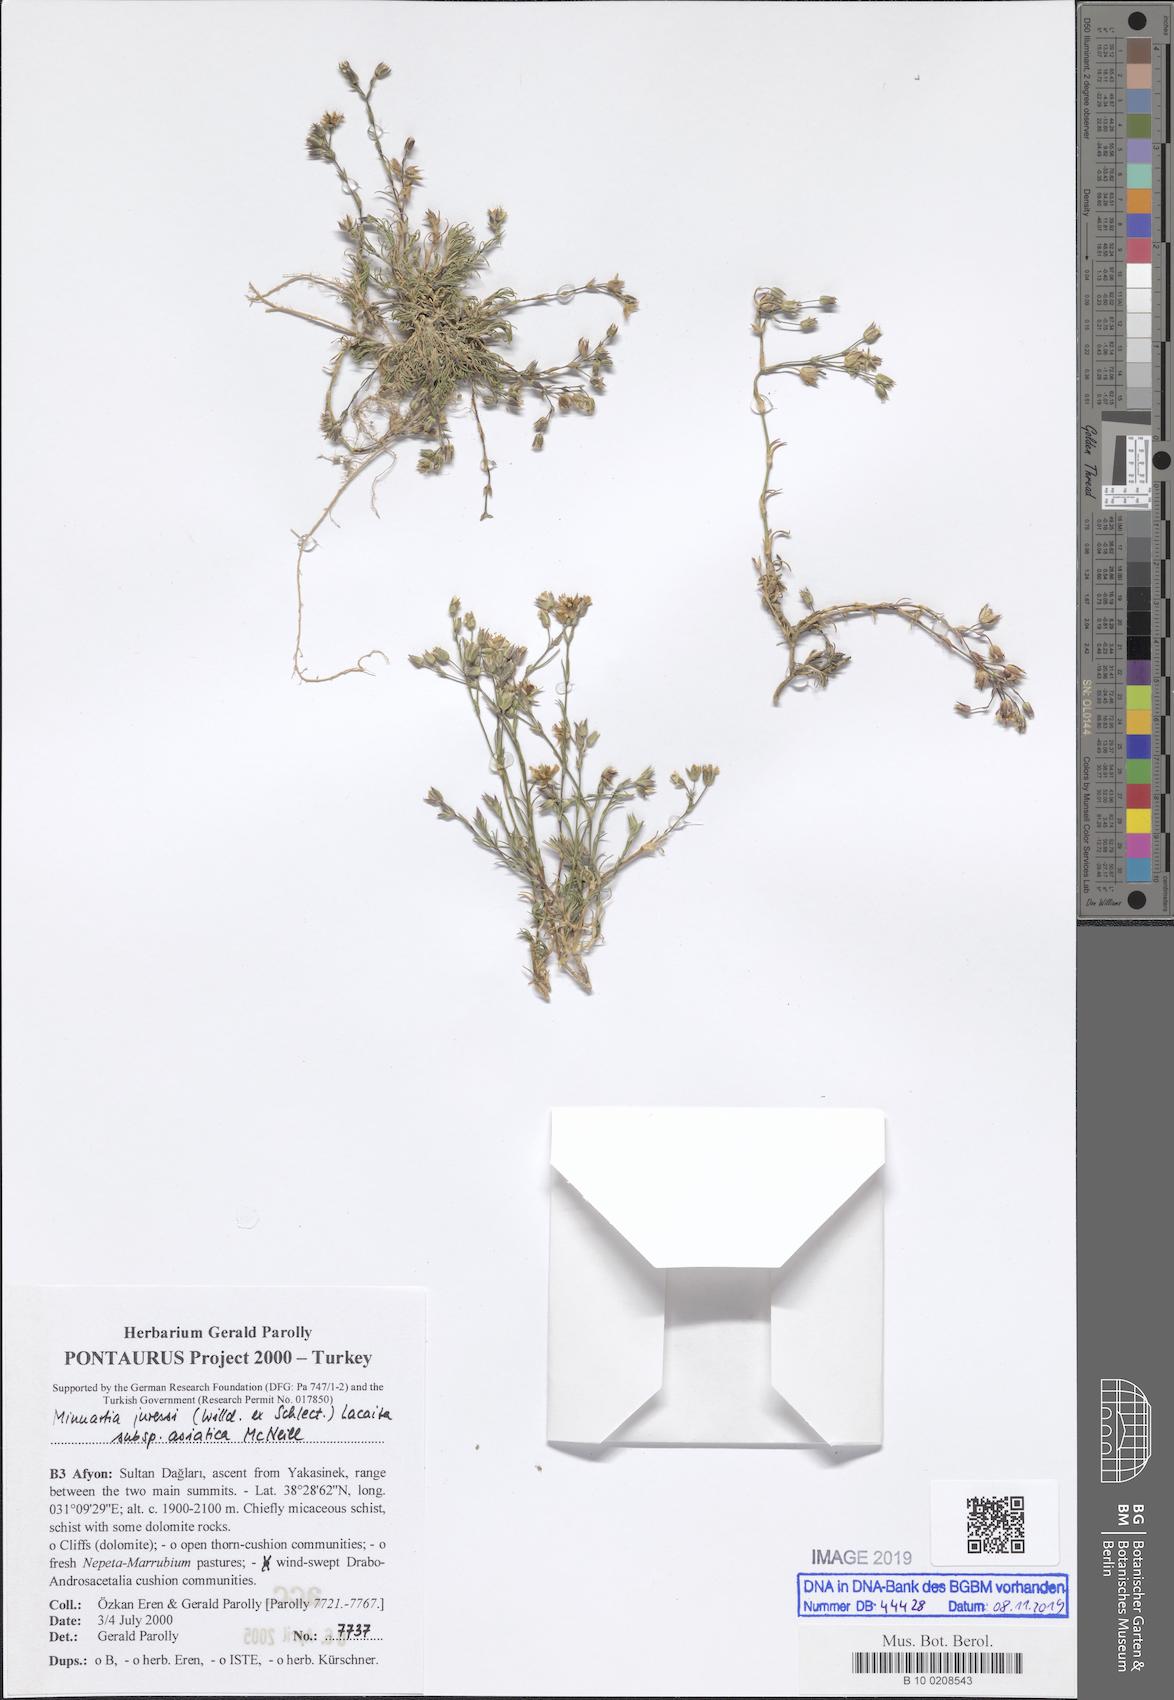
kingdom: Plantae
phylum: Tracheophyta
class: Magnoliopsida
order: Caryophyllales
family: Caryophyllaceae
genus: Minuartia
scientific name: Minuartia hirsuta
